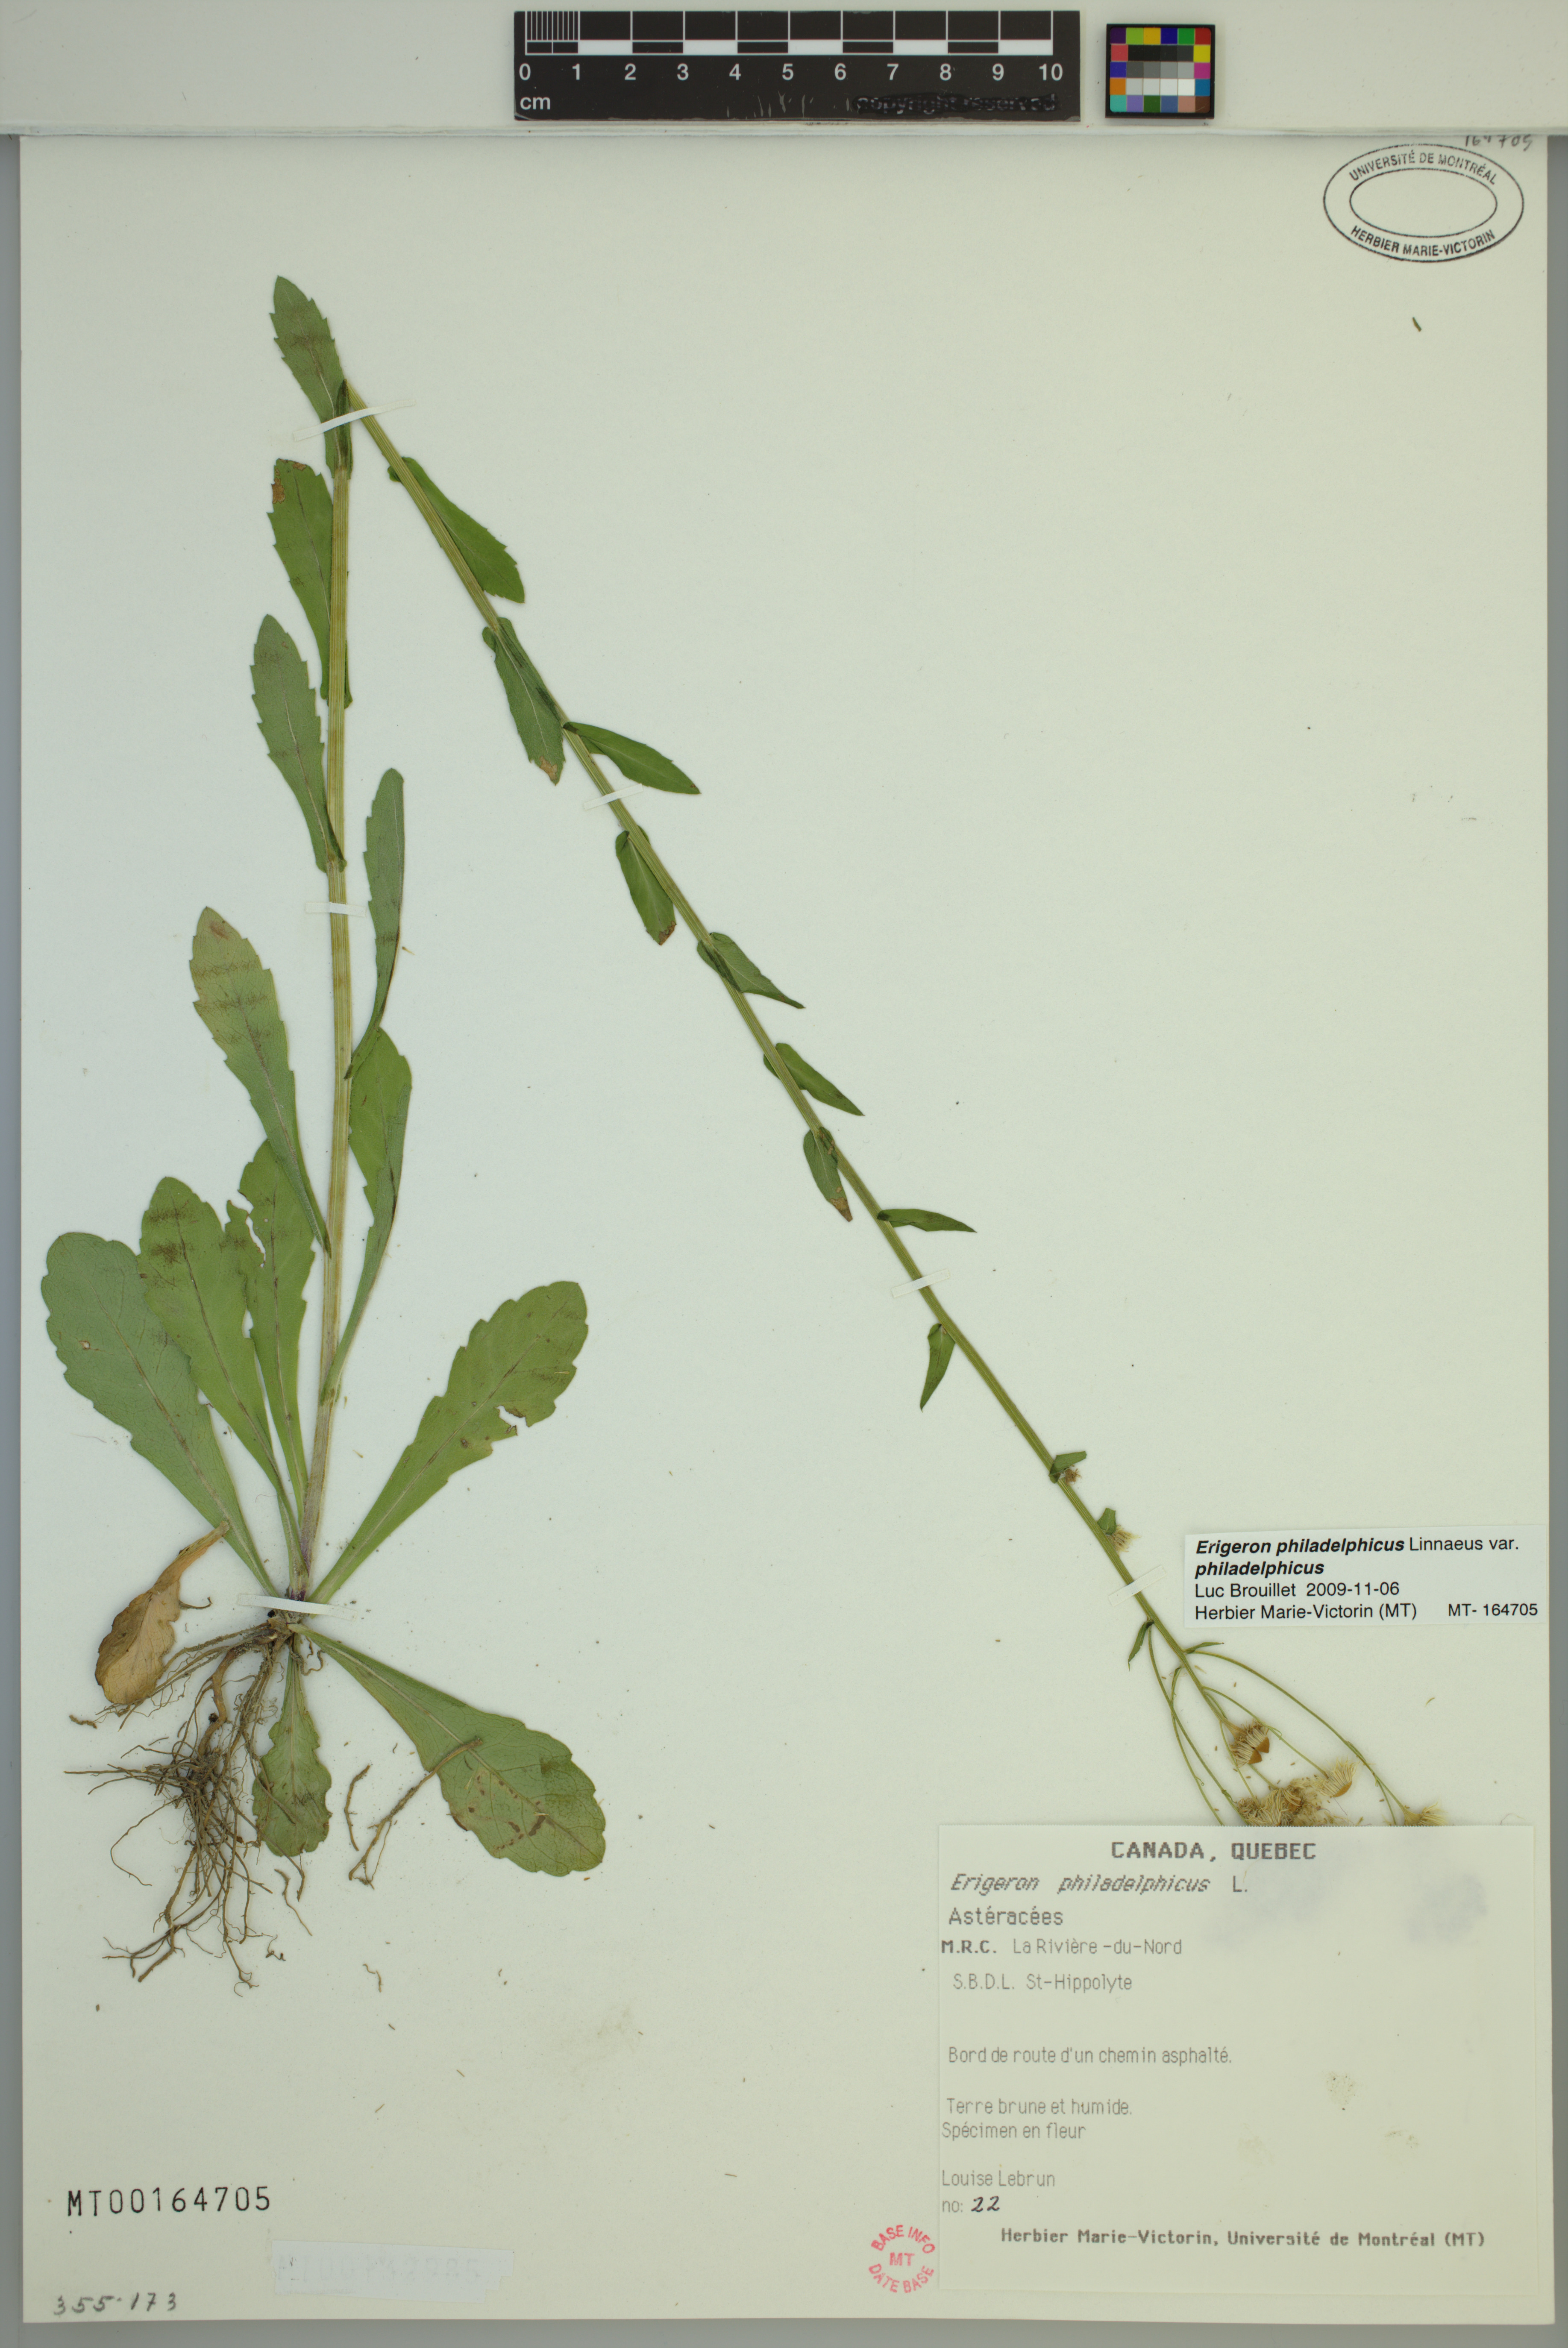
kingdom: Plantae
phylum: Tracheophyta
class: Magnoliopsida
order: Asterales
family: Asteraceae
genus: Erigeron
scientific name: Erigeron philadelphicus
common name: Robin's-plantain
